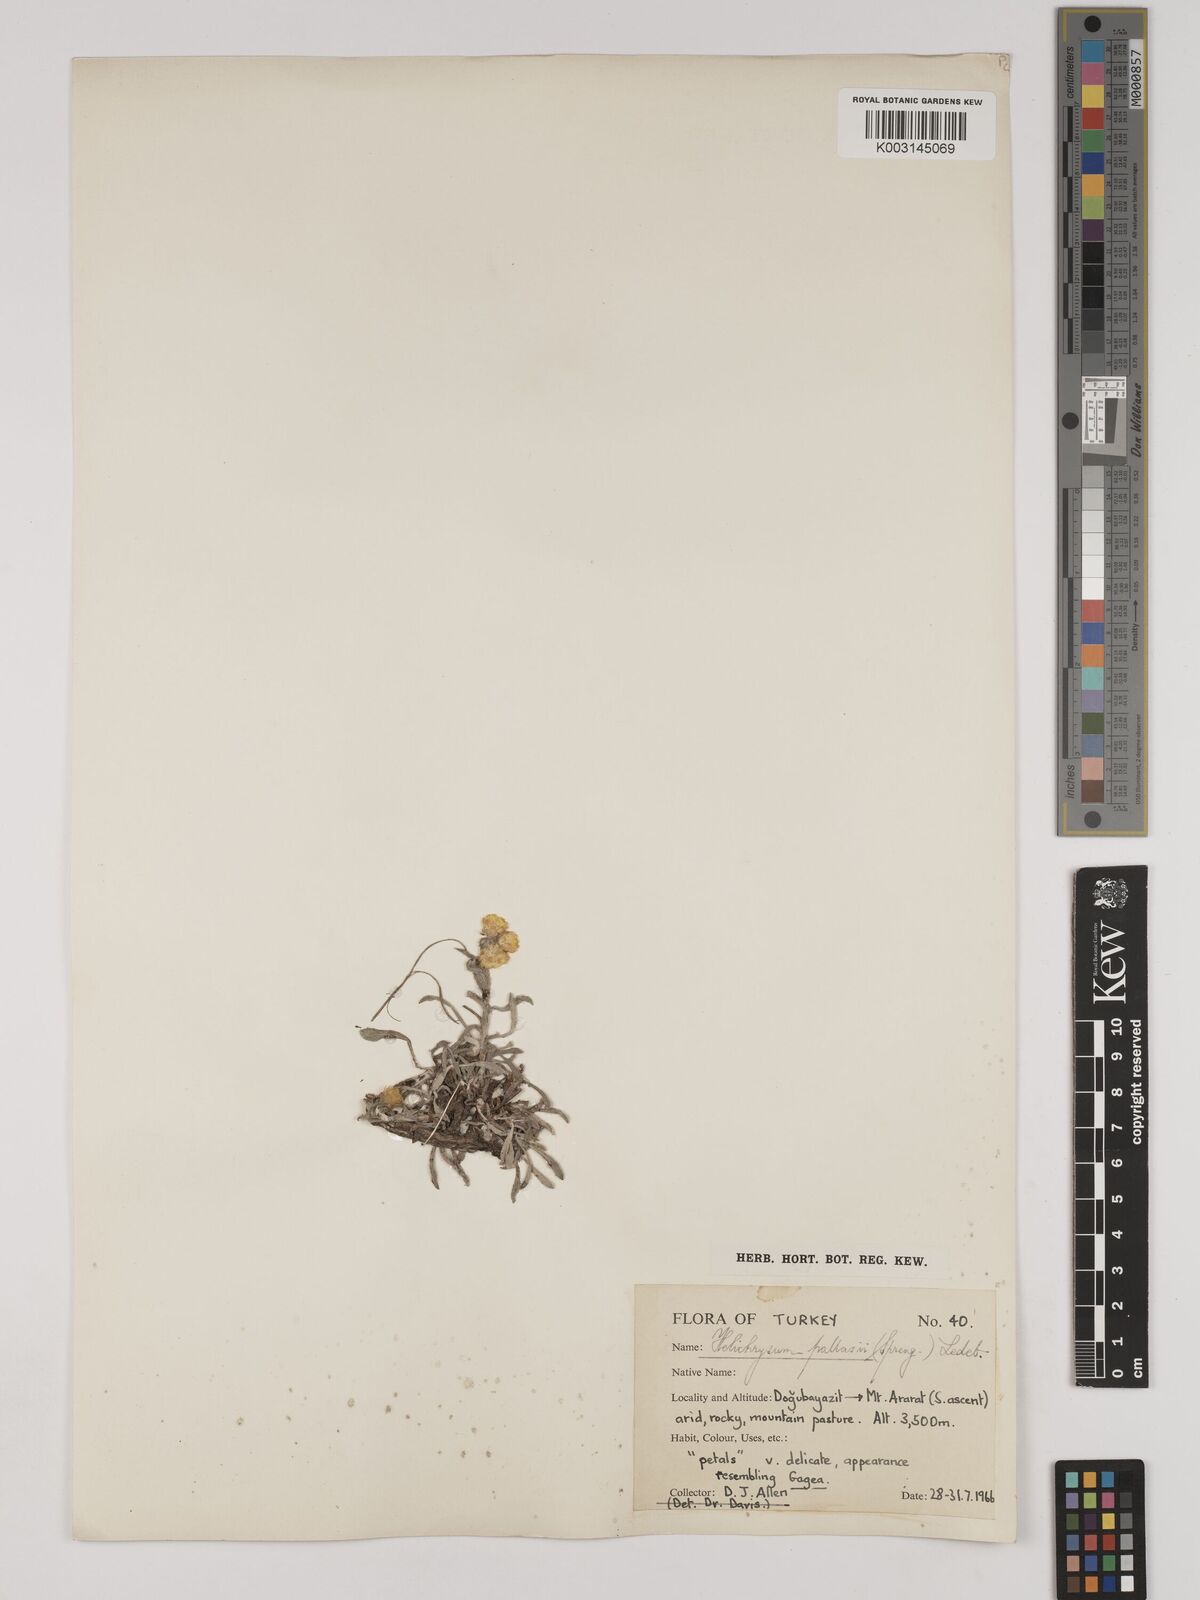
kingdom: Plantae
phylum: Tracheophyta
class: Magnoliopsida
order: Asterales
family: Asteraceae
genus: Helichrysum
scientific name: Helichrysum pallasii
